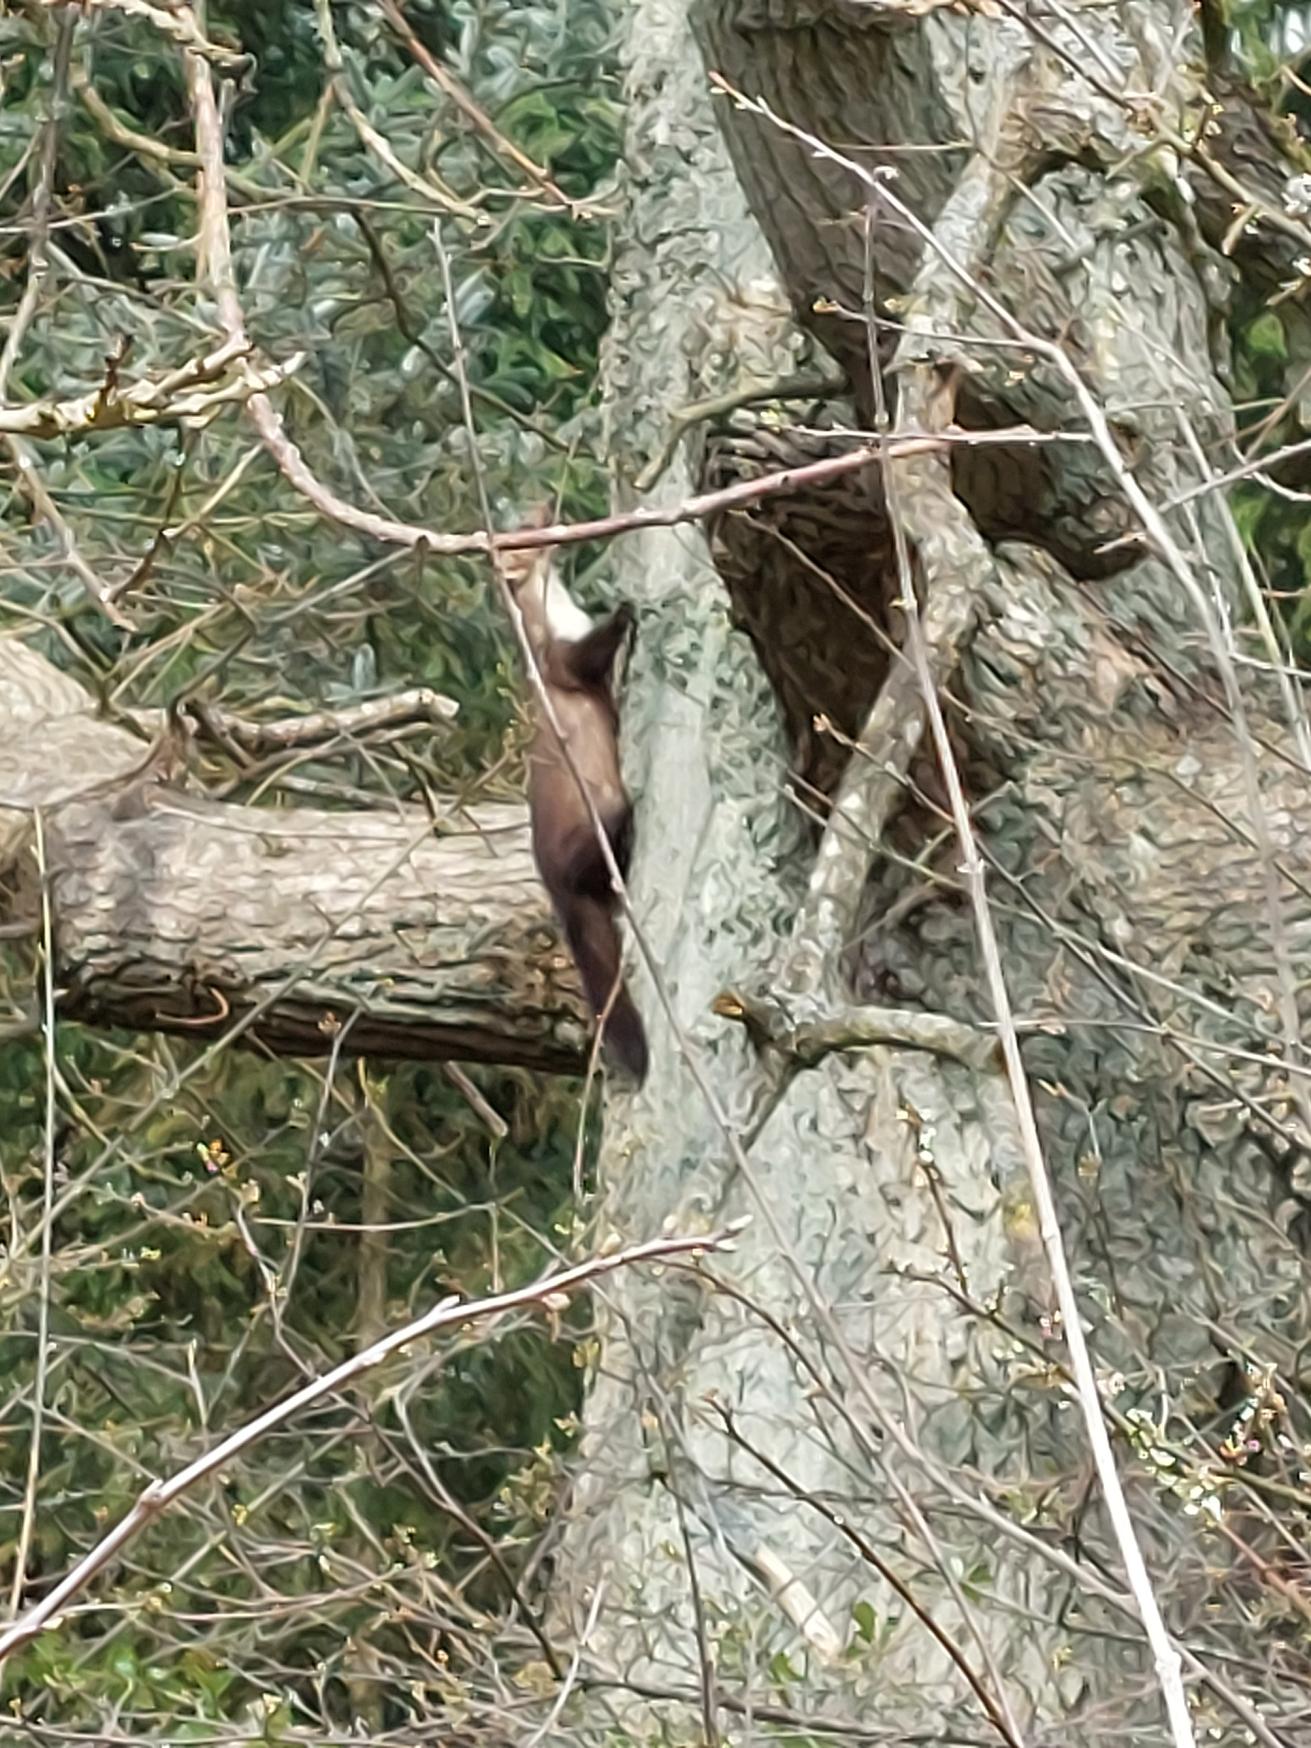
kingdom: Animalia
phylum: Chordata
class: Mammalia
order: Carnivora
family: Mustelidae
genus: Martes
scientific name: Martes foina
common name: Husmår
